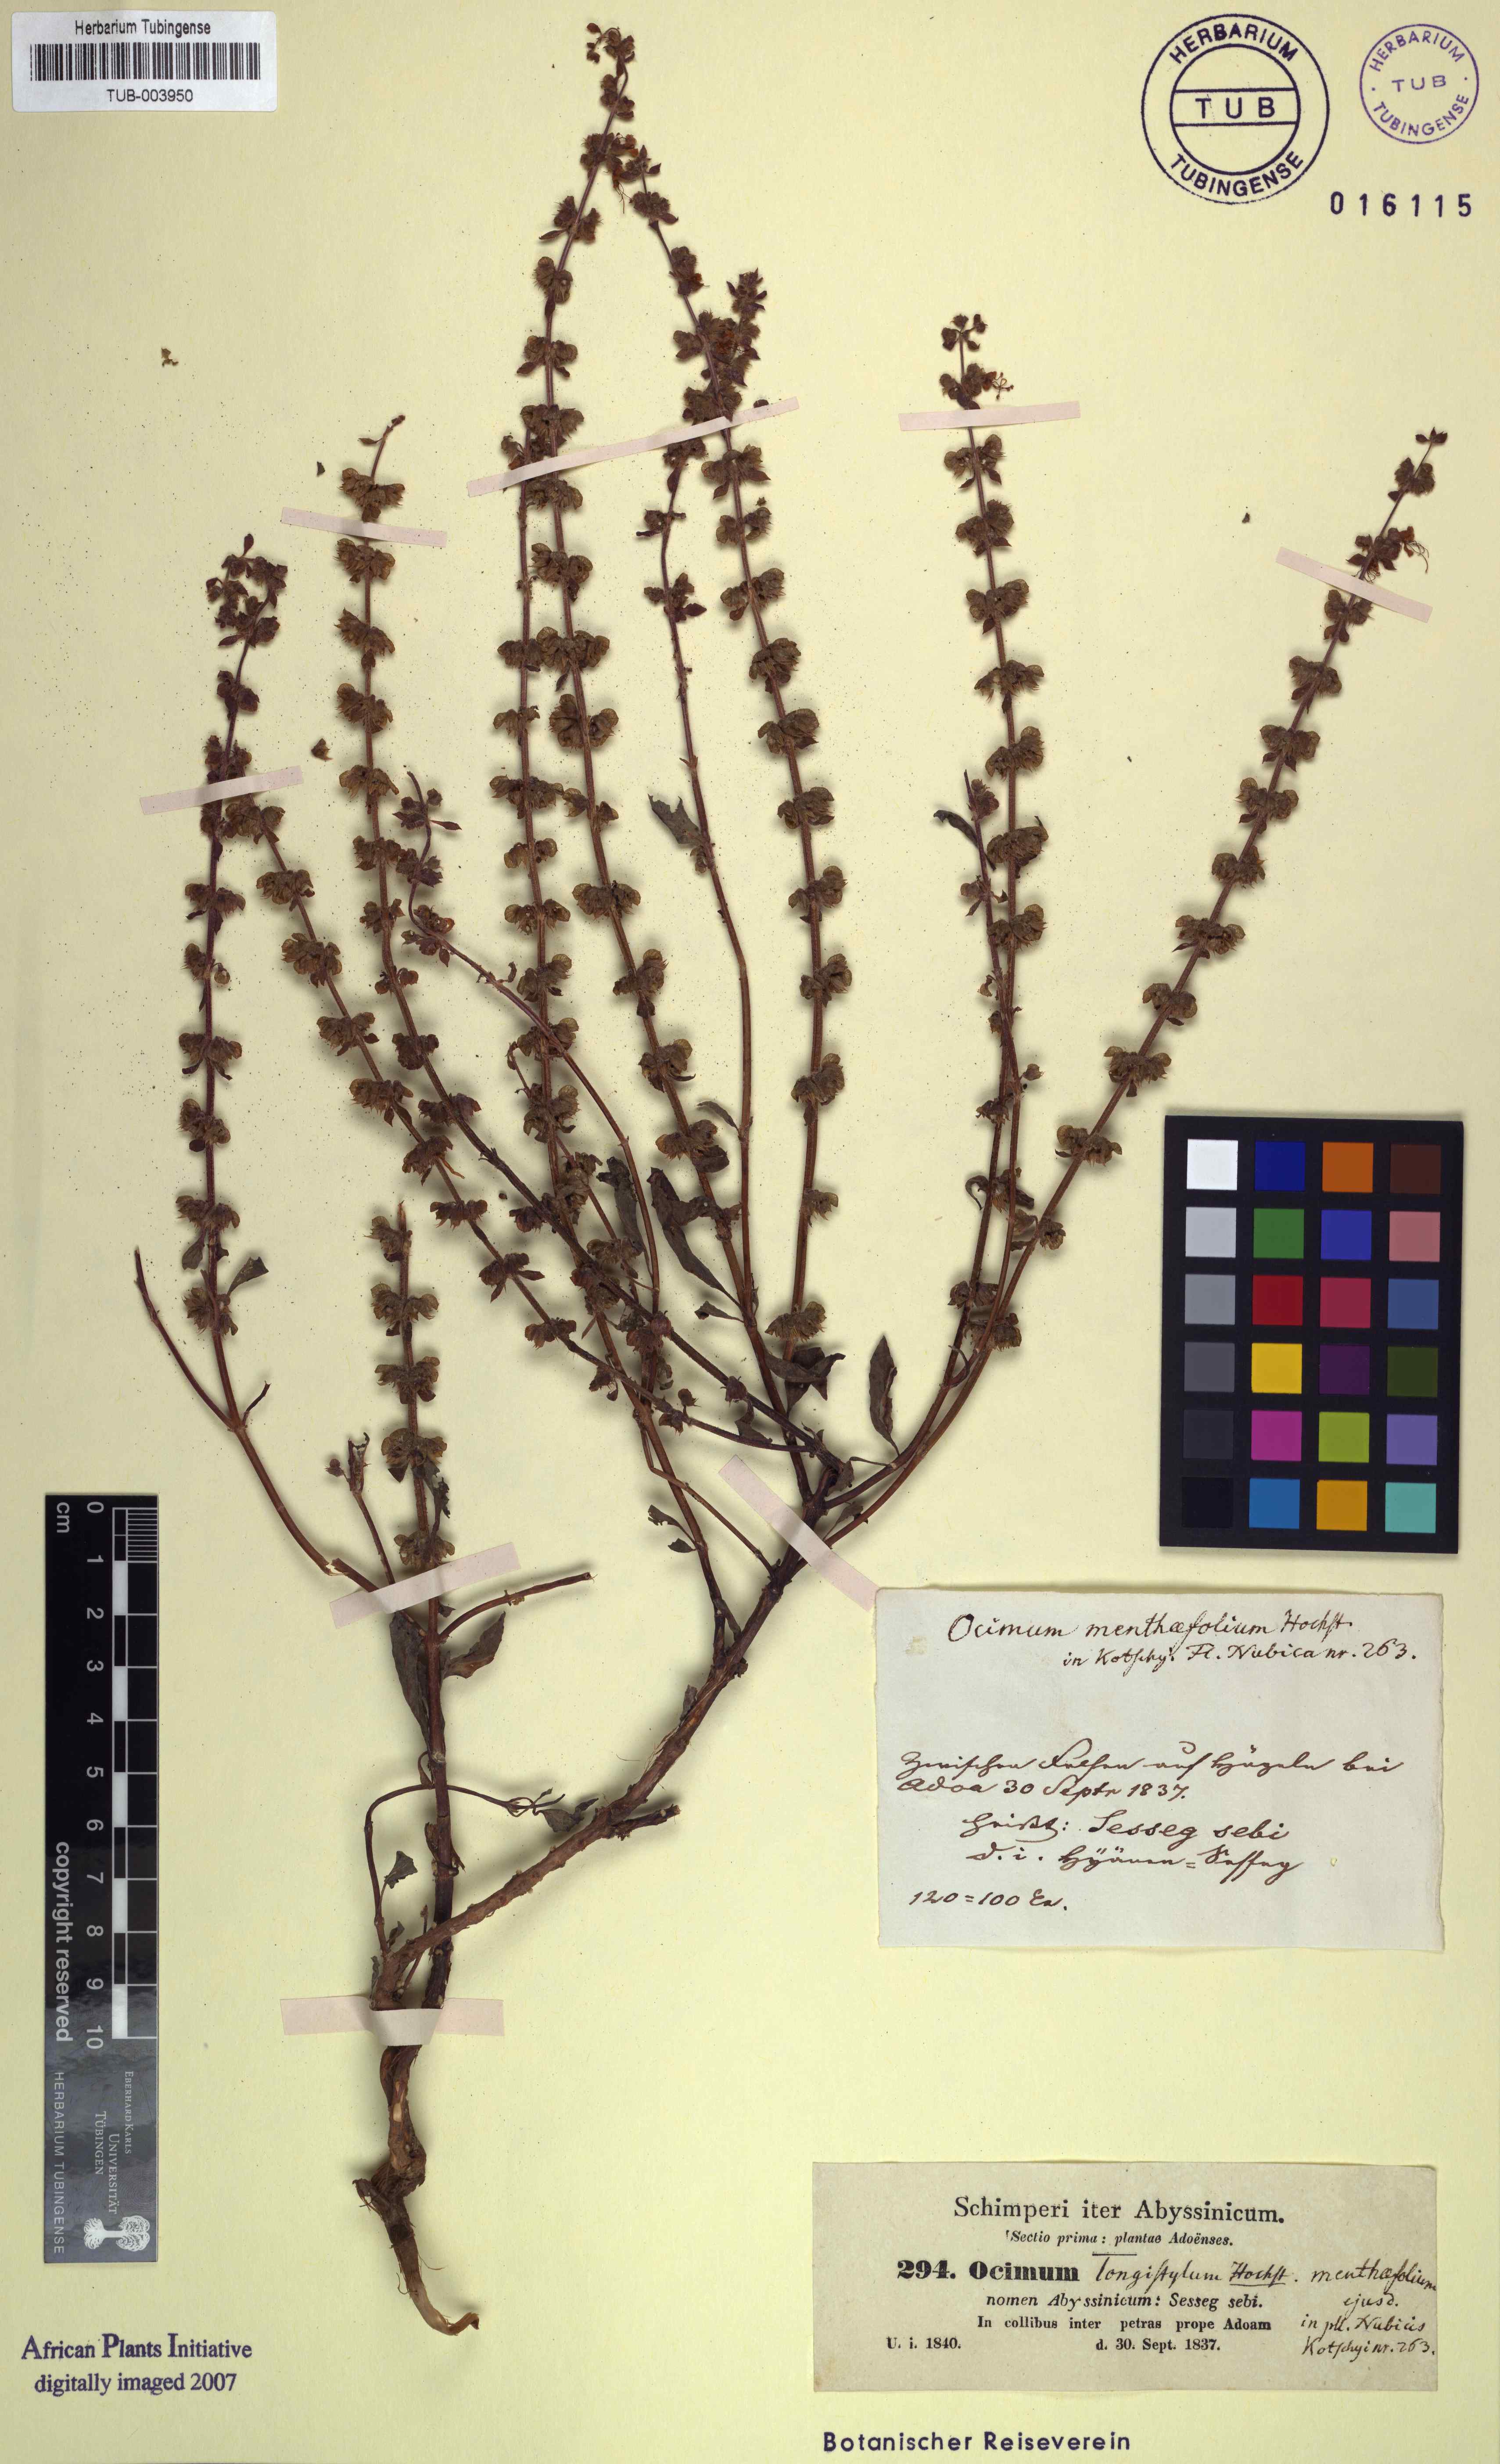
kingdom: Plantae
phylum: Tracheophyta
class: Magnoliopsida
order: Lamiales
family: Lamiaceae
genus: Ocimum
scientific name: Ocimum forskoelei
